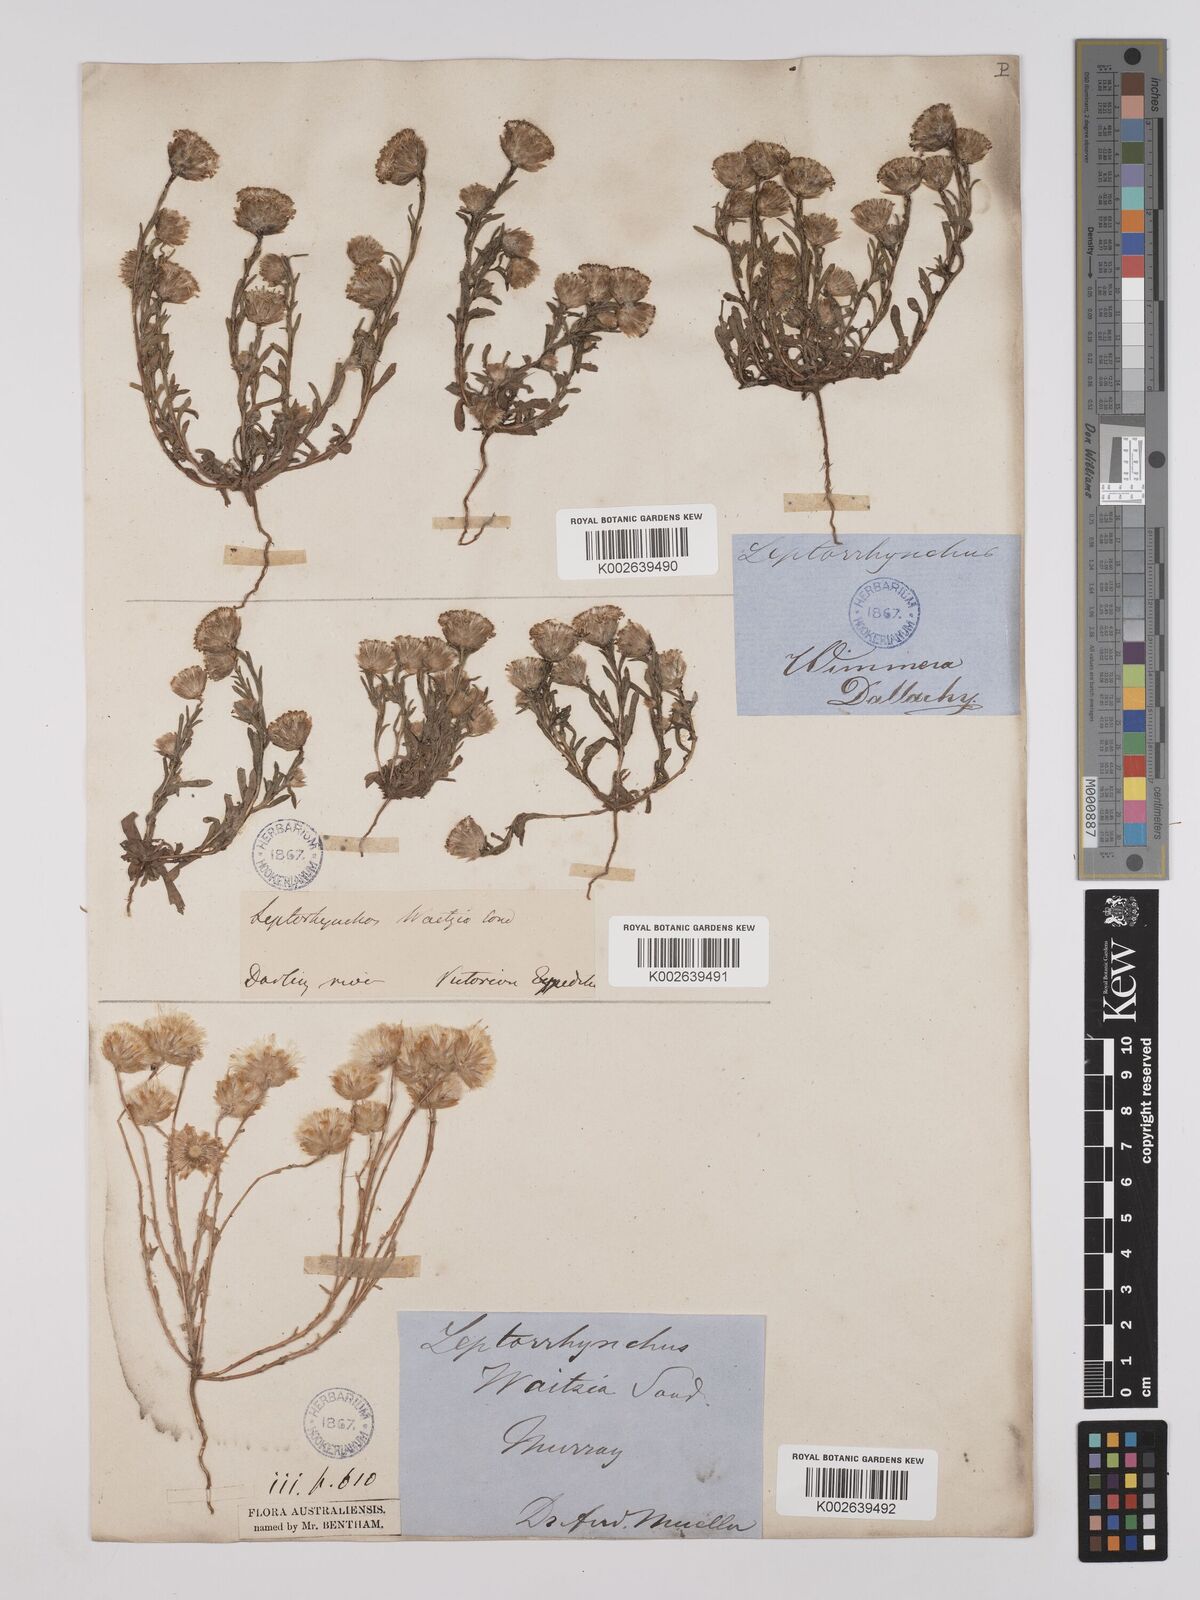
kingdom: Plantae
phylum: Tracheophyta
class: Magnoliopsida
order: Asterales
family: Asteraceae
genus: Leptorhynchos
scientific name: Leptorhynchos waitzia
